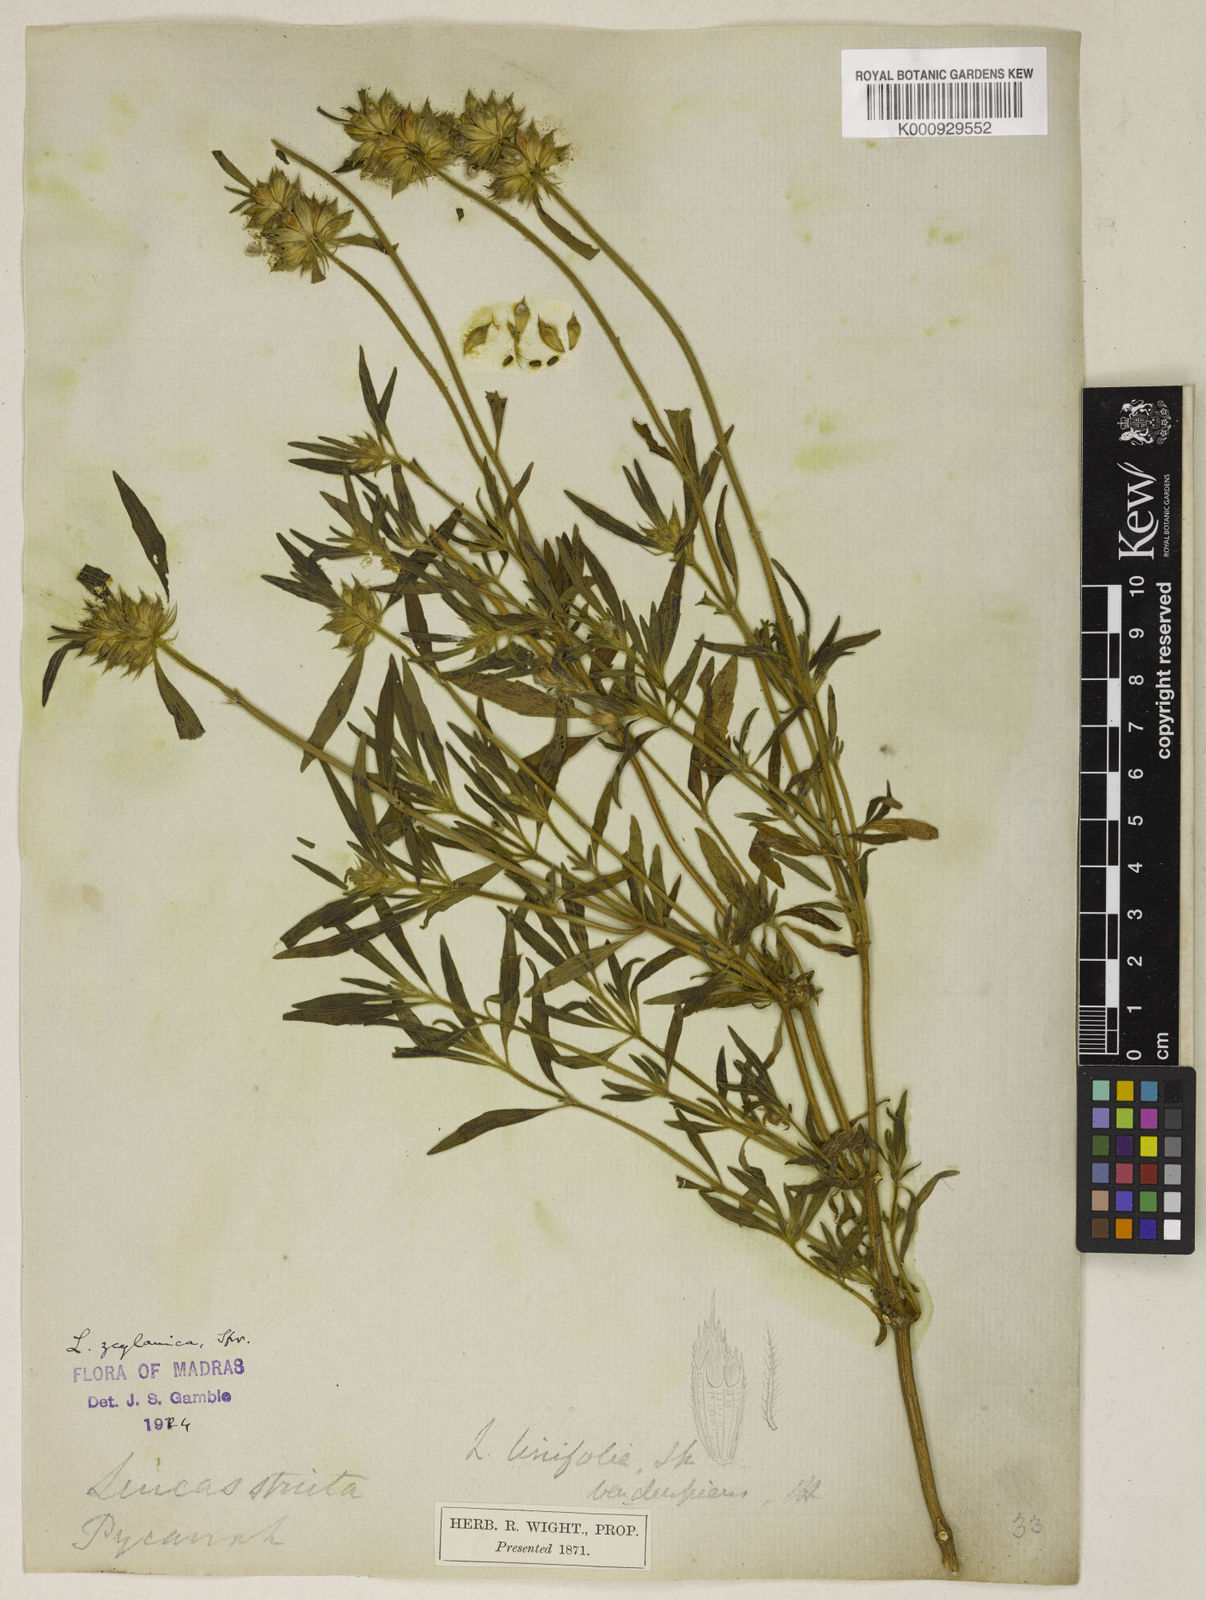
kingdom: Plantae
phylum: Tracheophyta
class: Magnoliopsida
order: Lamiales
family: Lamiaceae
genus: Leucas
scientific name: Leucas zeylanica
